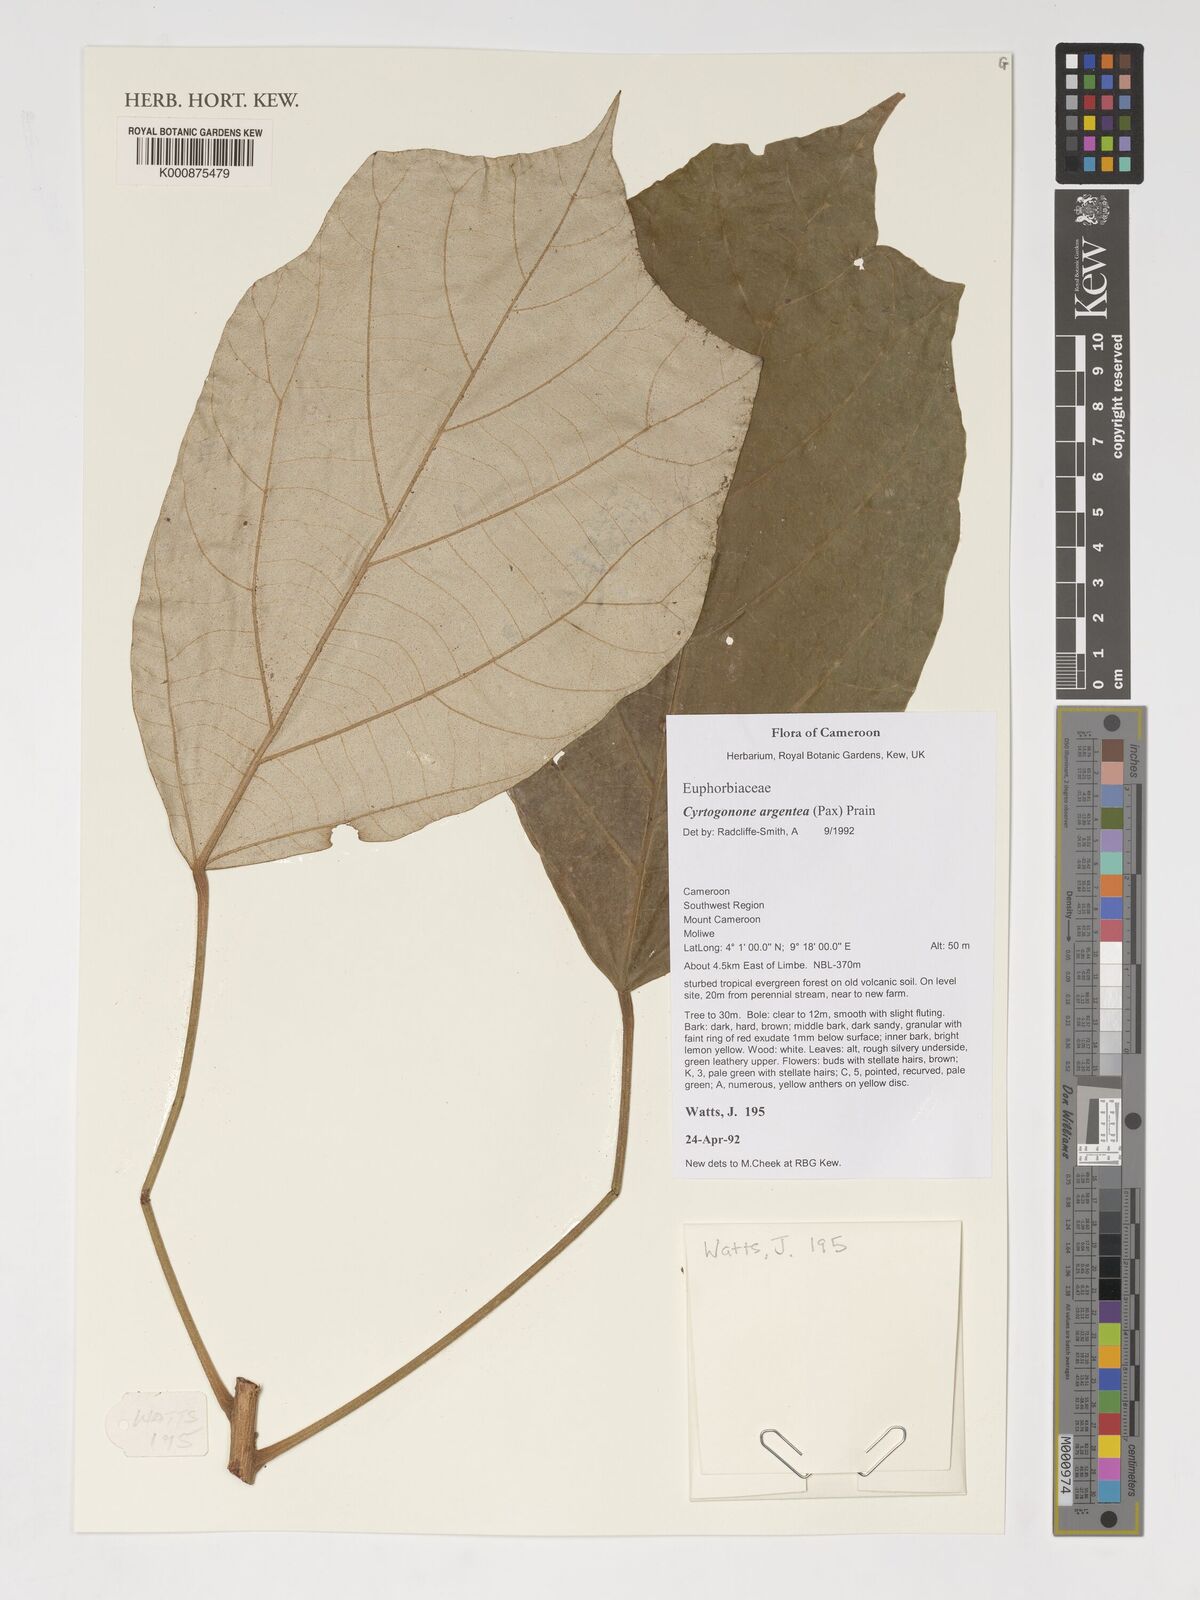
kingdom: Plantae
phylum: Tracheophyta
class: Magnoliopsida
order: Malpighiales
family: Euphorbiaceae
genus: Cyrtogonone
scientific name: Cyrtogonone argentea
